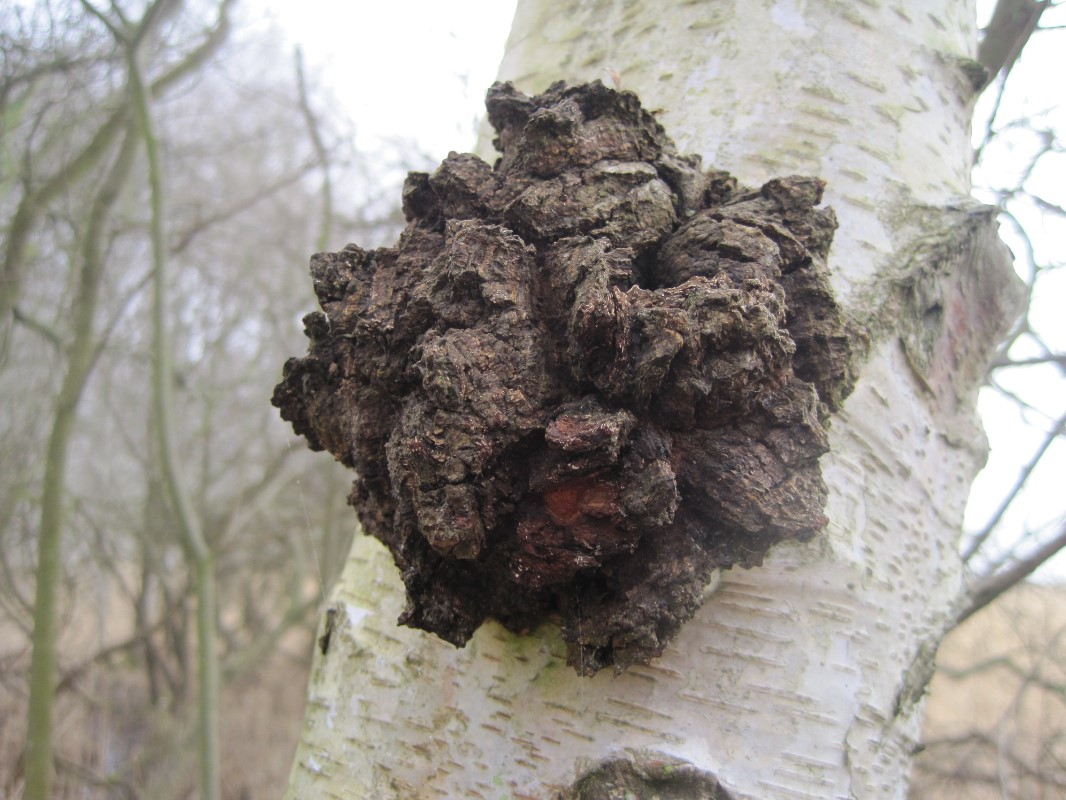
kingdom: Fungi
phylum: Basidiomycota
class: Agaricomycetes
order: Hymenochaetales
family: Hymenochaetaceae
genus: Inonotus
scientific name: Inonotus obliquus
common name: birke-spejlporesvamp
